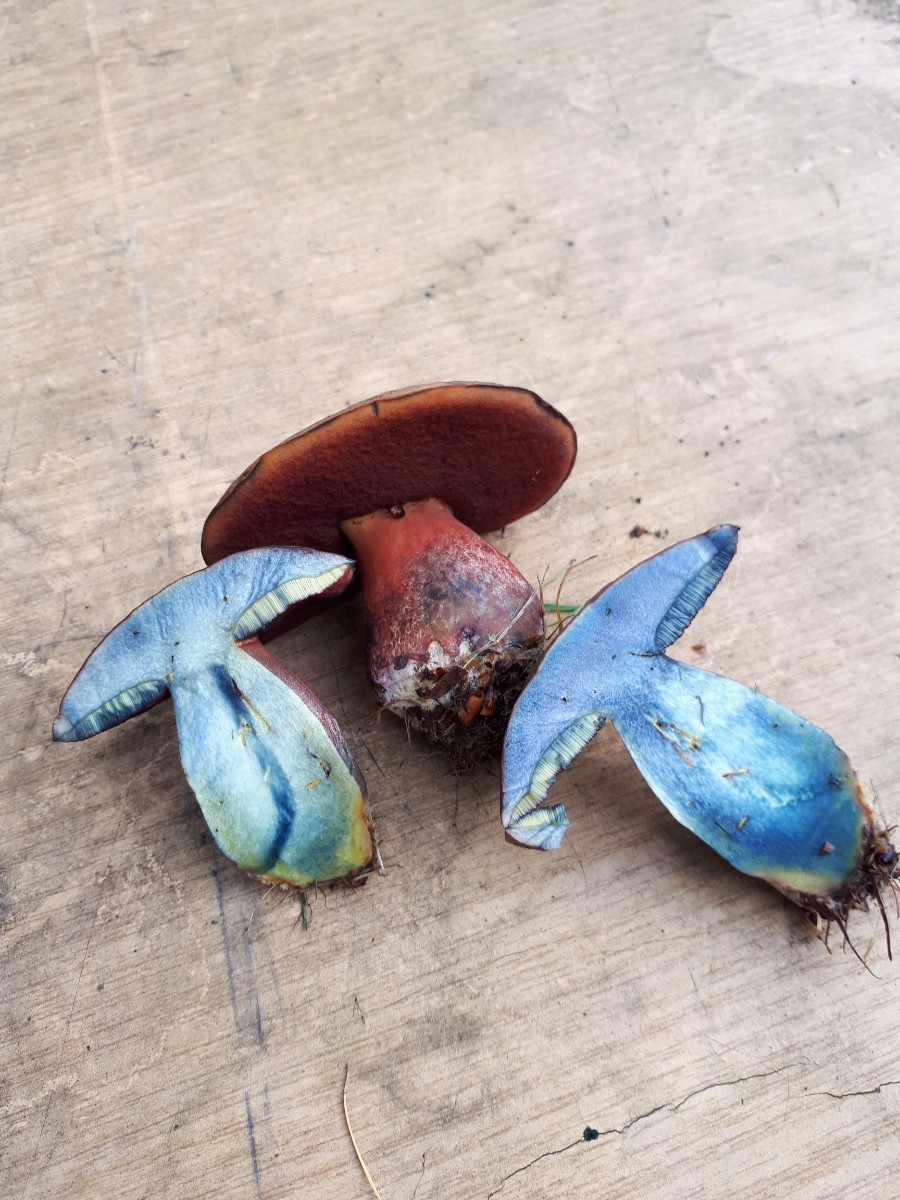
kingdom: Fungi
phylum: Basidiomycota
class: Agaricomycetes
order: Boletales
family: Boletaceae
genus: Neoboletus
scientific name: Neoboletus erythropus
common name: punktstokket indigorørhat
